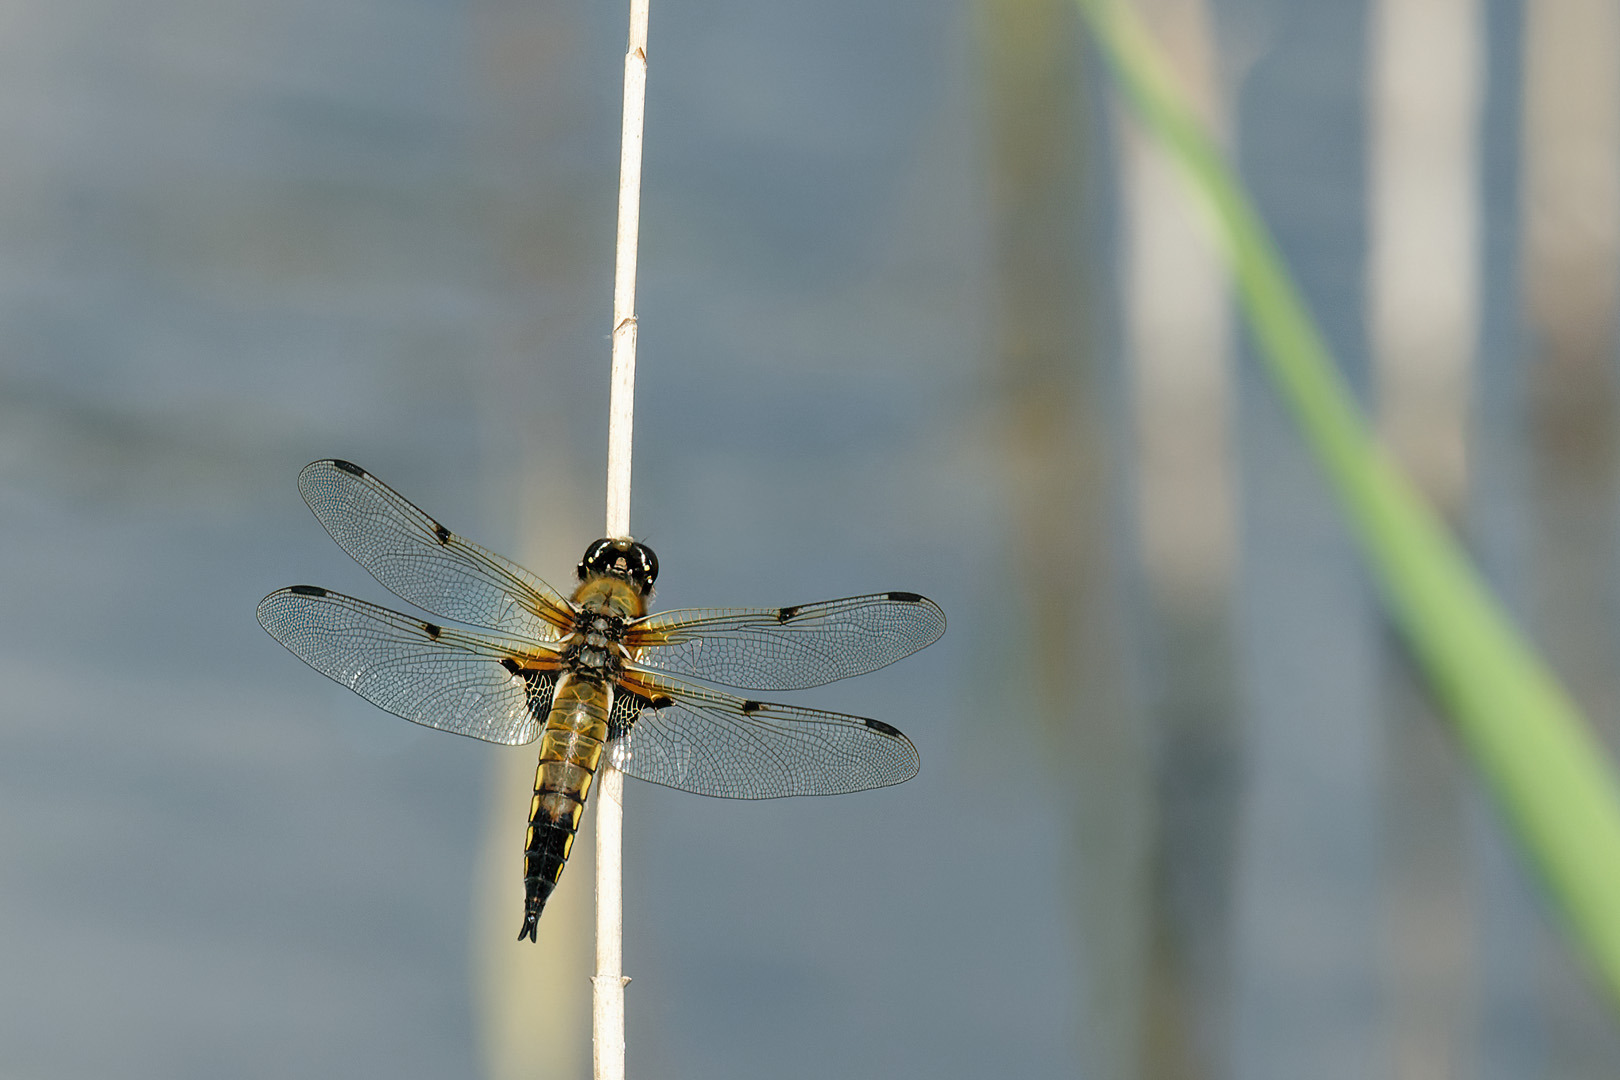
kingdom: Animalia
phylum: Arthropoda
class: Insecta
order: Odonata
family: Libellulidae
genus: Libellula
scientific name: Libellula quadrimaculata
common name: Fireplettet libel
